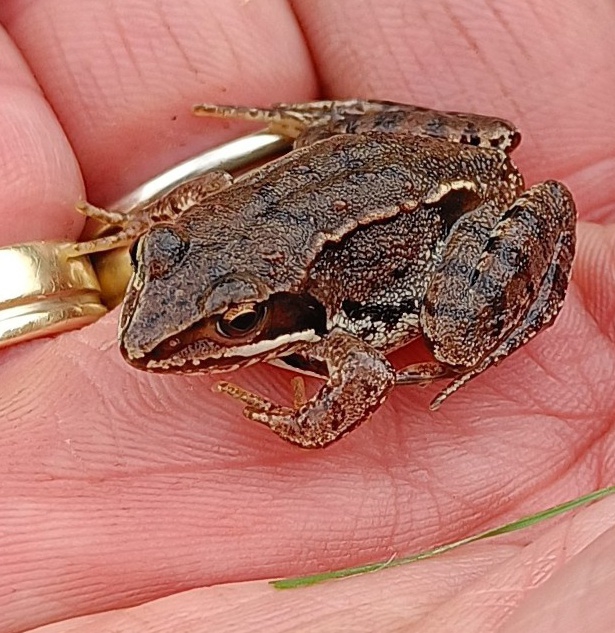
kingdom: Animalia
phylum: Chordata
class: Amphibia
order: Anura
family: Ranidae
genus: Rana
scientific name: Rana arvalis
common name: Spidssnudet frø
